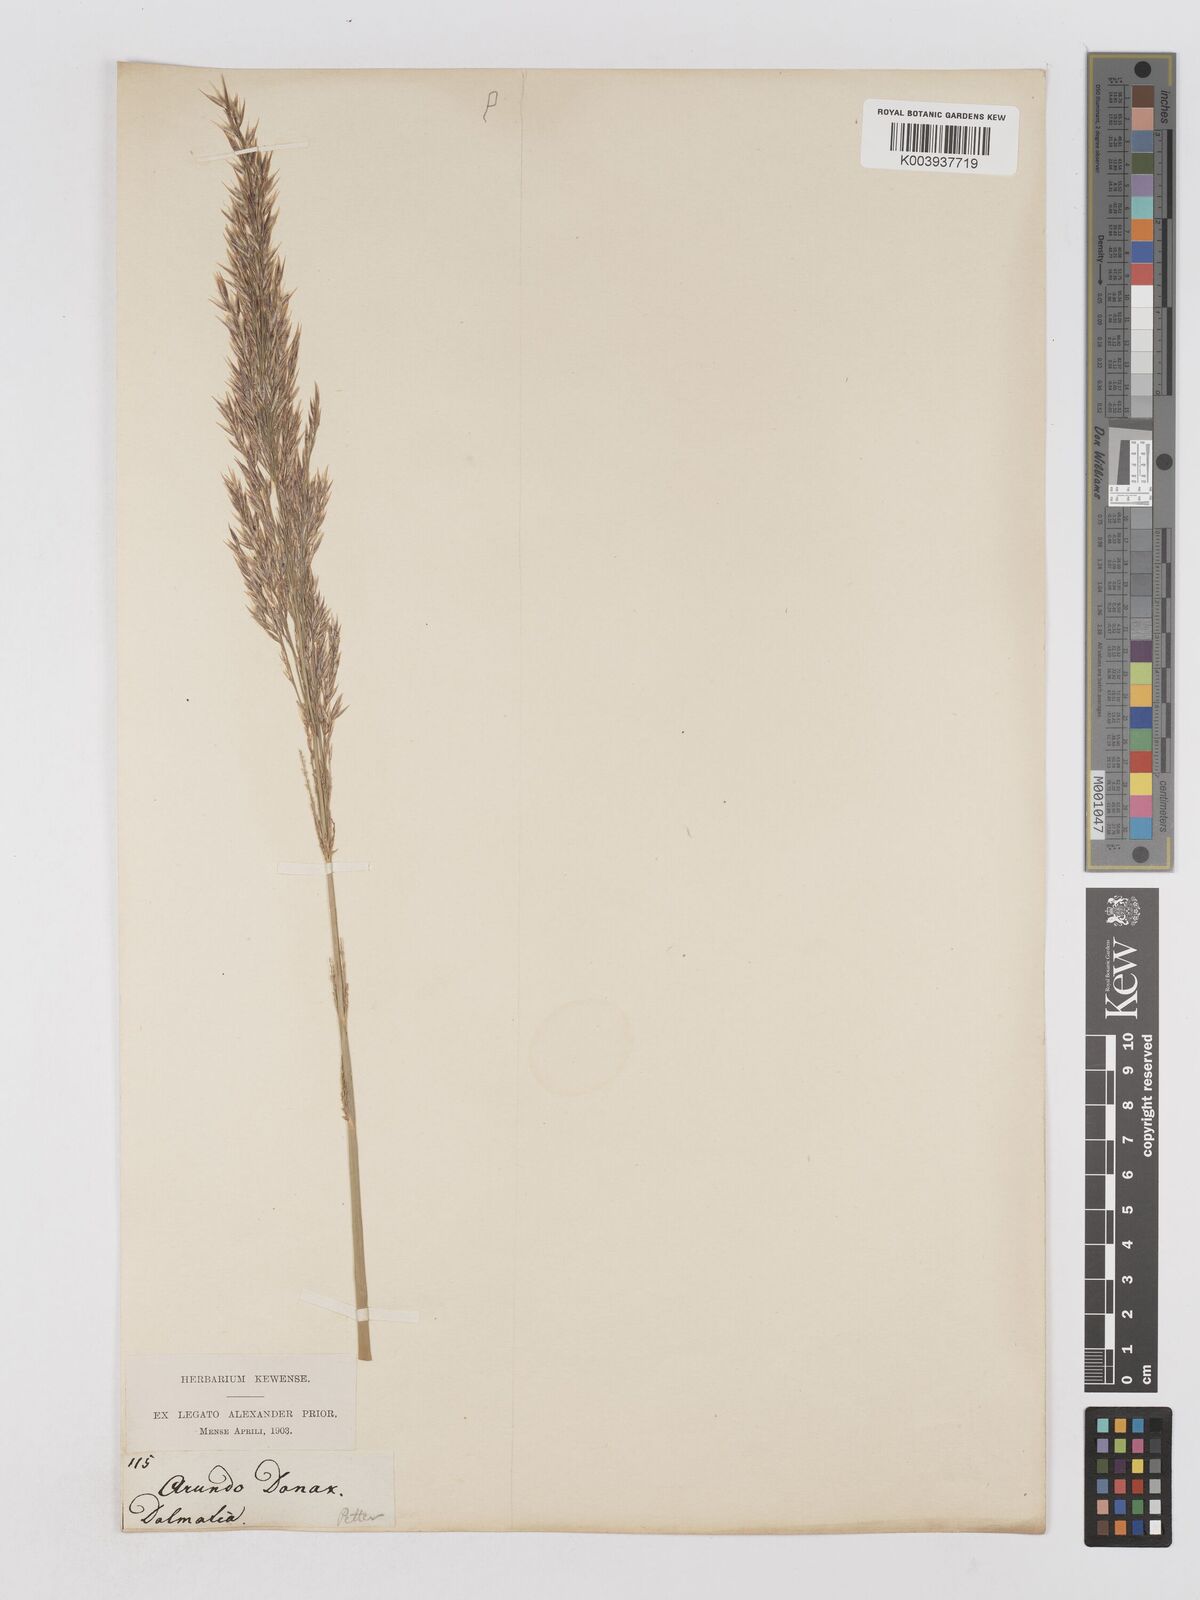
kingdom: Plantae
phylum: Tracheophyta
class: Liliopsida
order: Poales
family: Poaceae
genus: Arundo
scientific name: Arundo donax
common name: Giant reed
